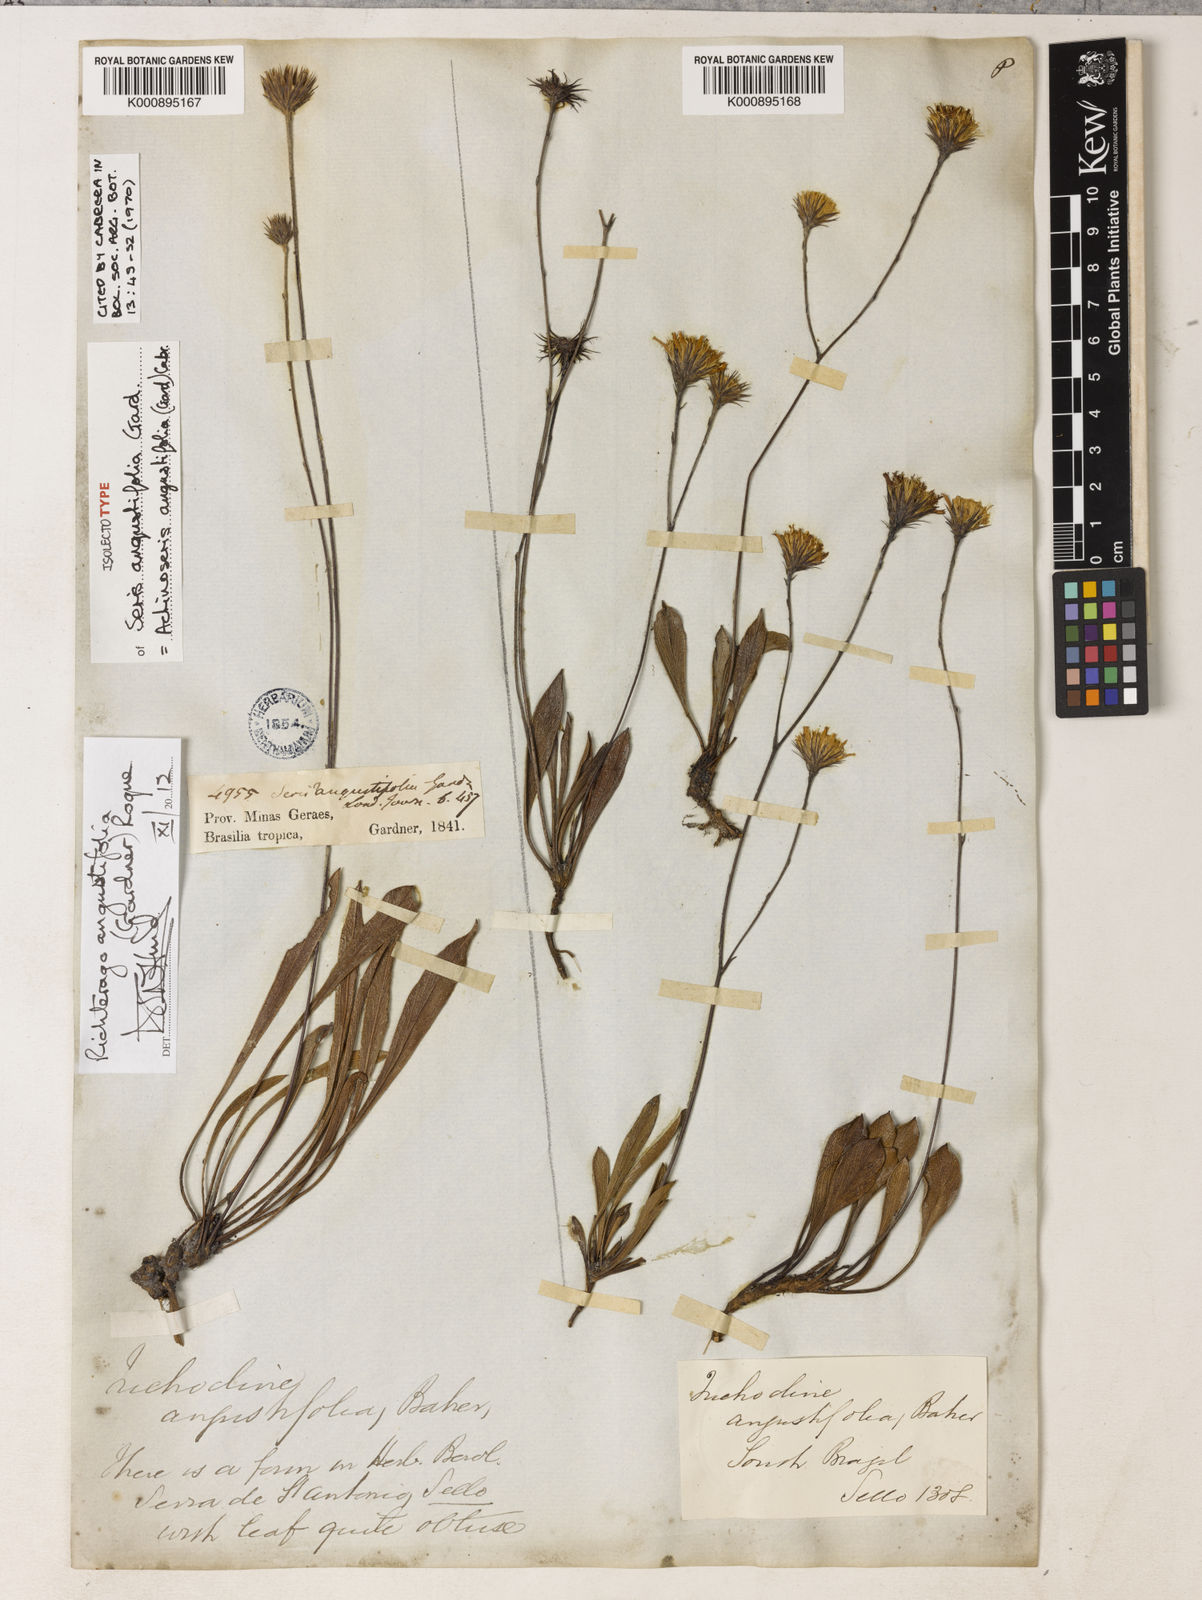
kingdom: Plantae
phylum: Tracheophyta
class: Magnoliopsida
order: Asterales
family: Asteraceae
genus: Richterago
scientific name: Richterago angustifolia
